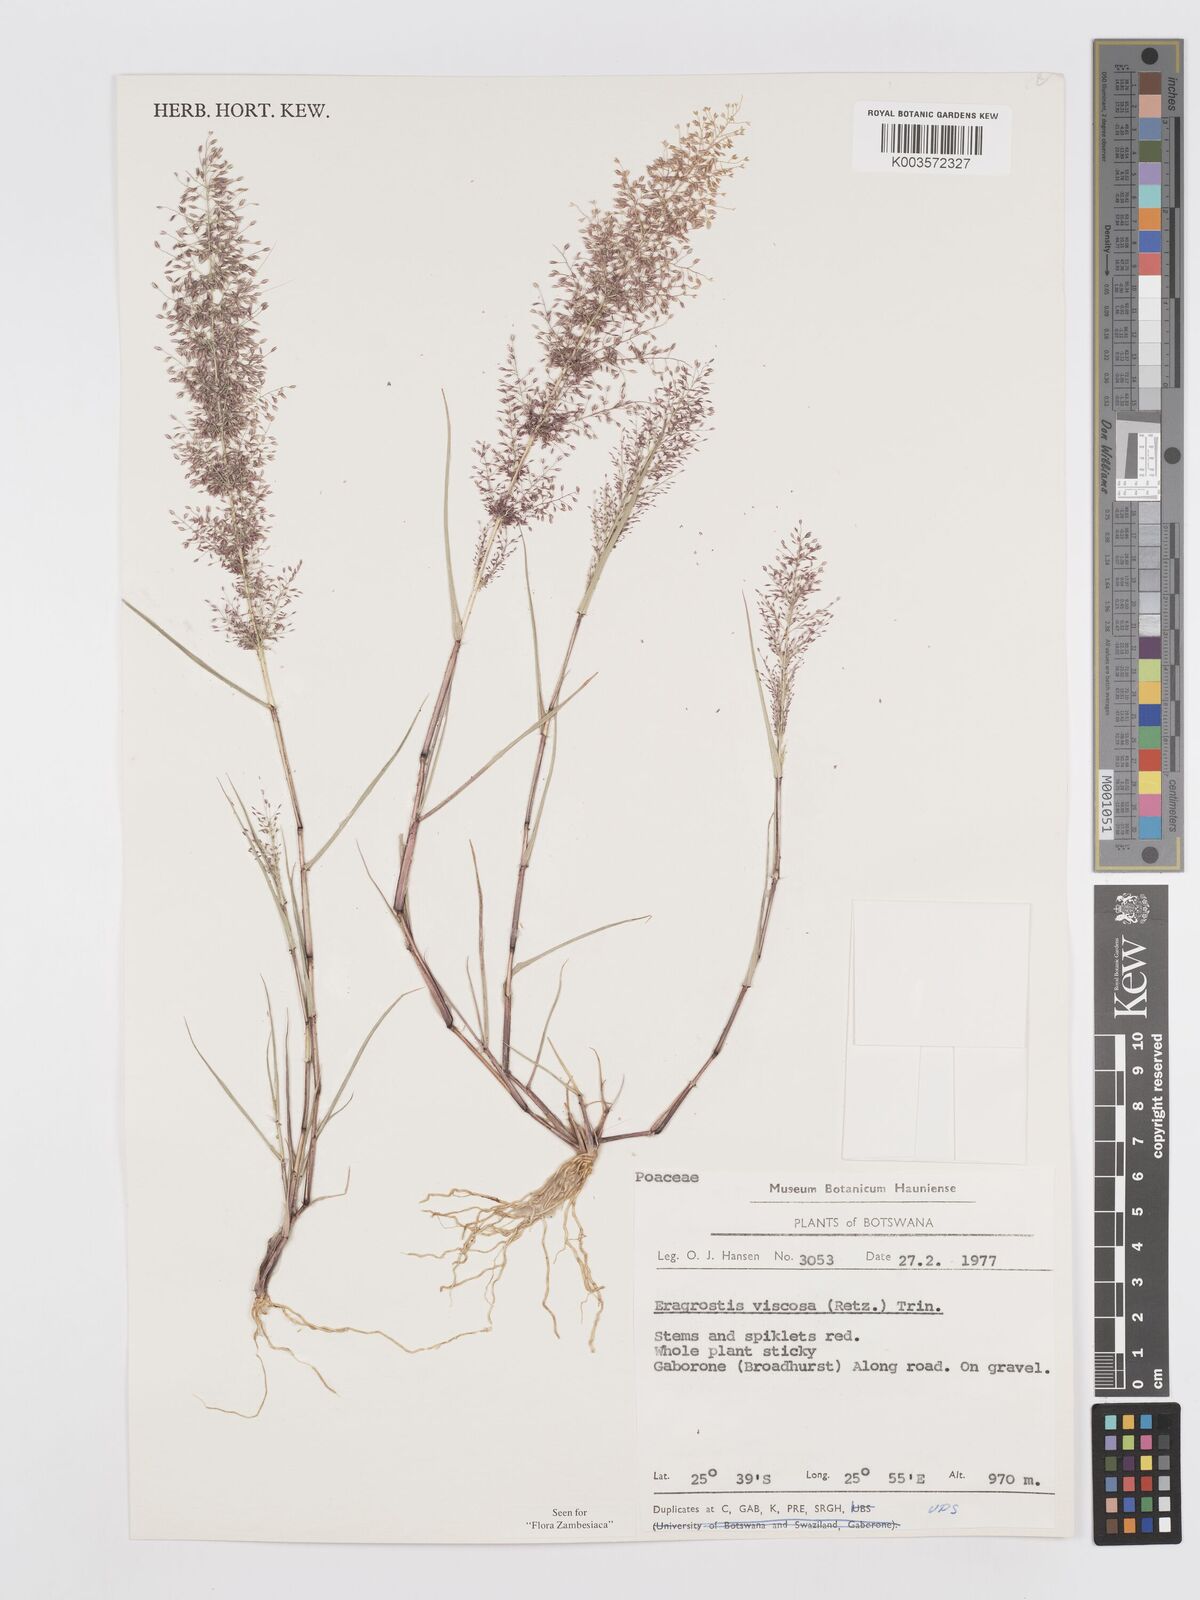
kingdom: Plantae
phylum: Tracheophyta
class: Liliopsida
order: Poales
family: Poaceae
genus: Eragrostis
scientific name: Eragrostis
